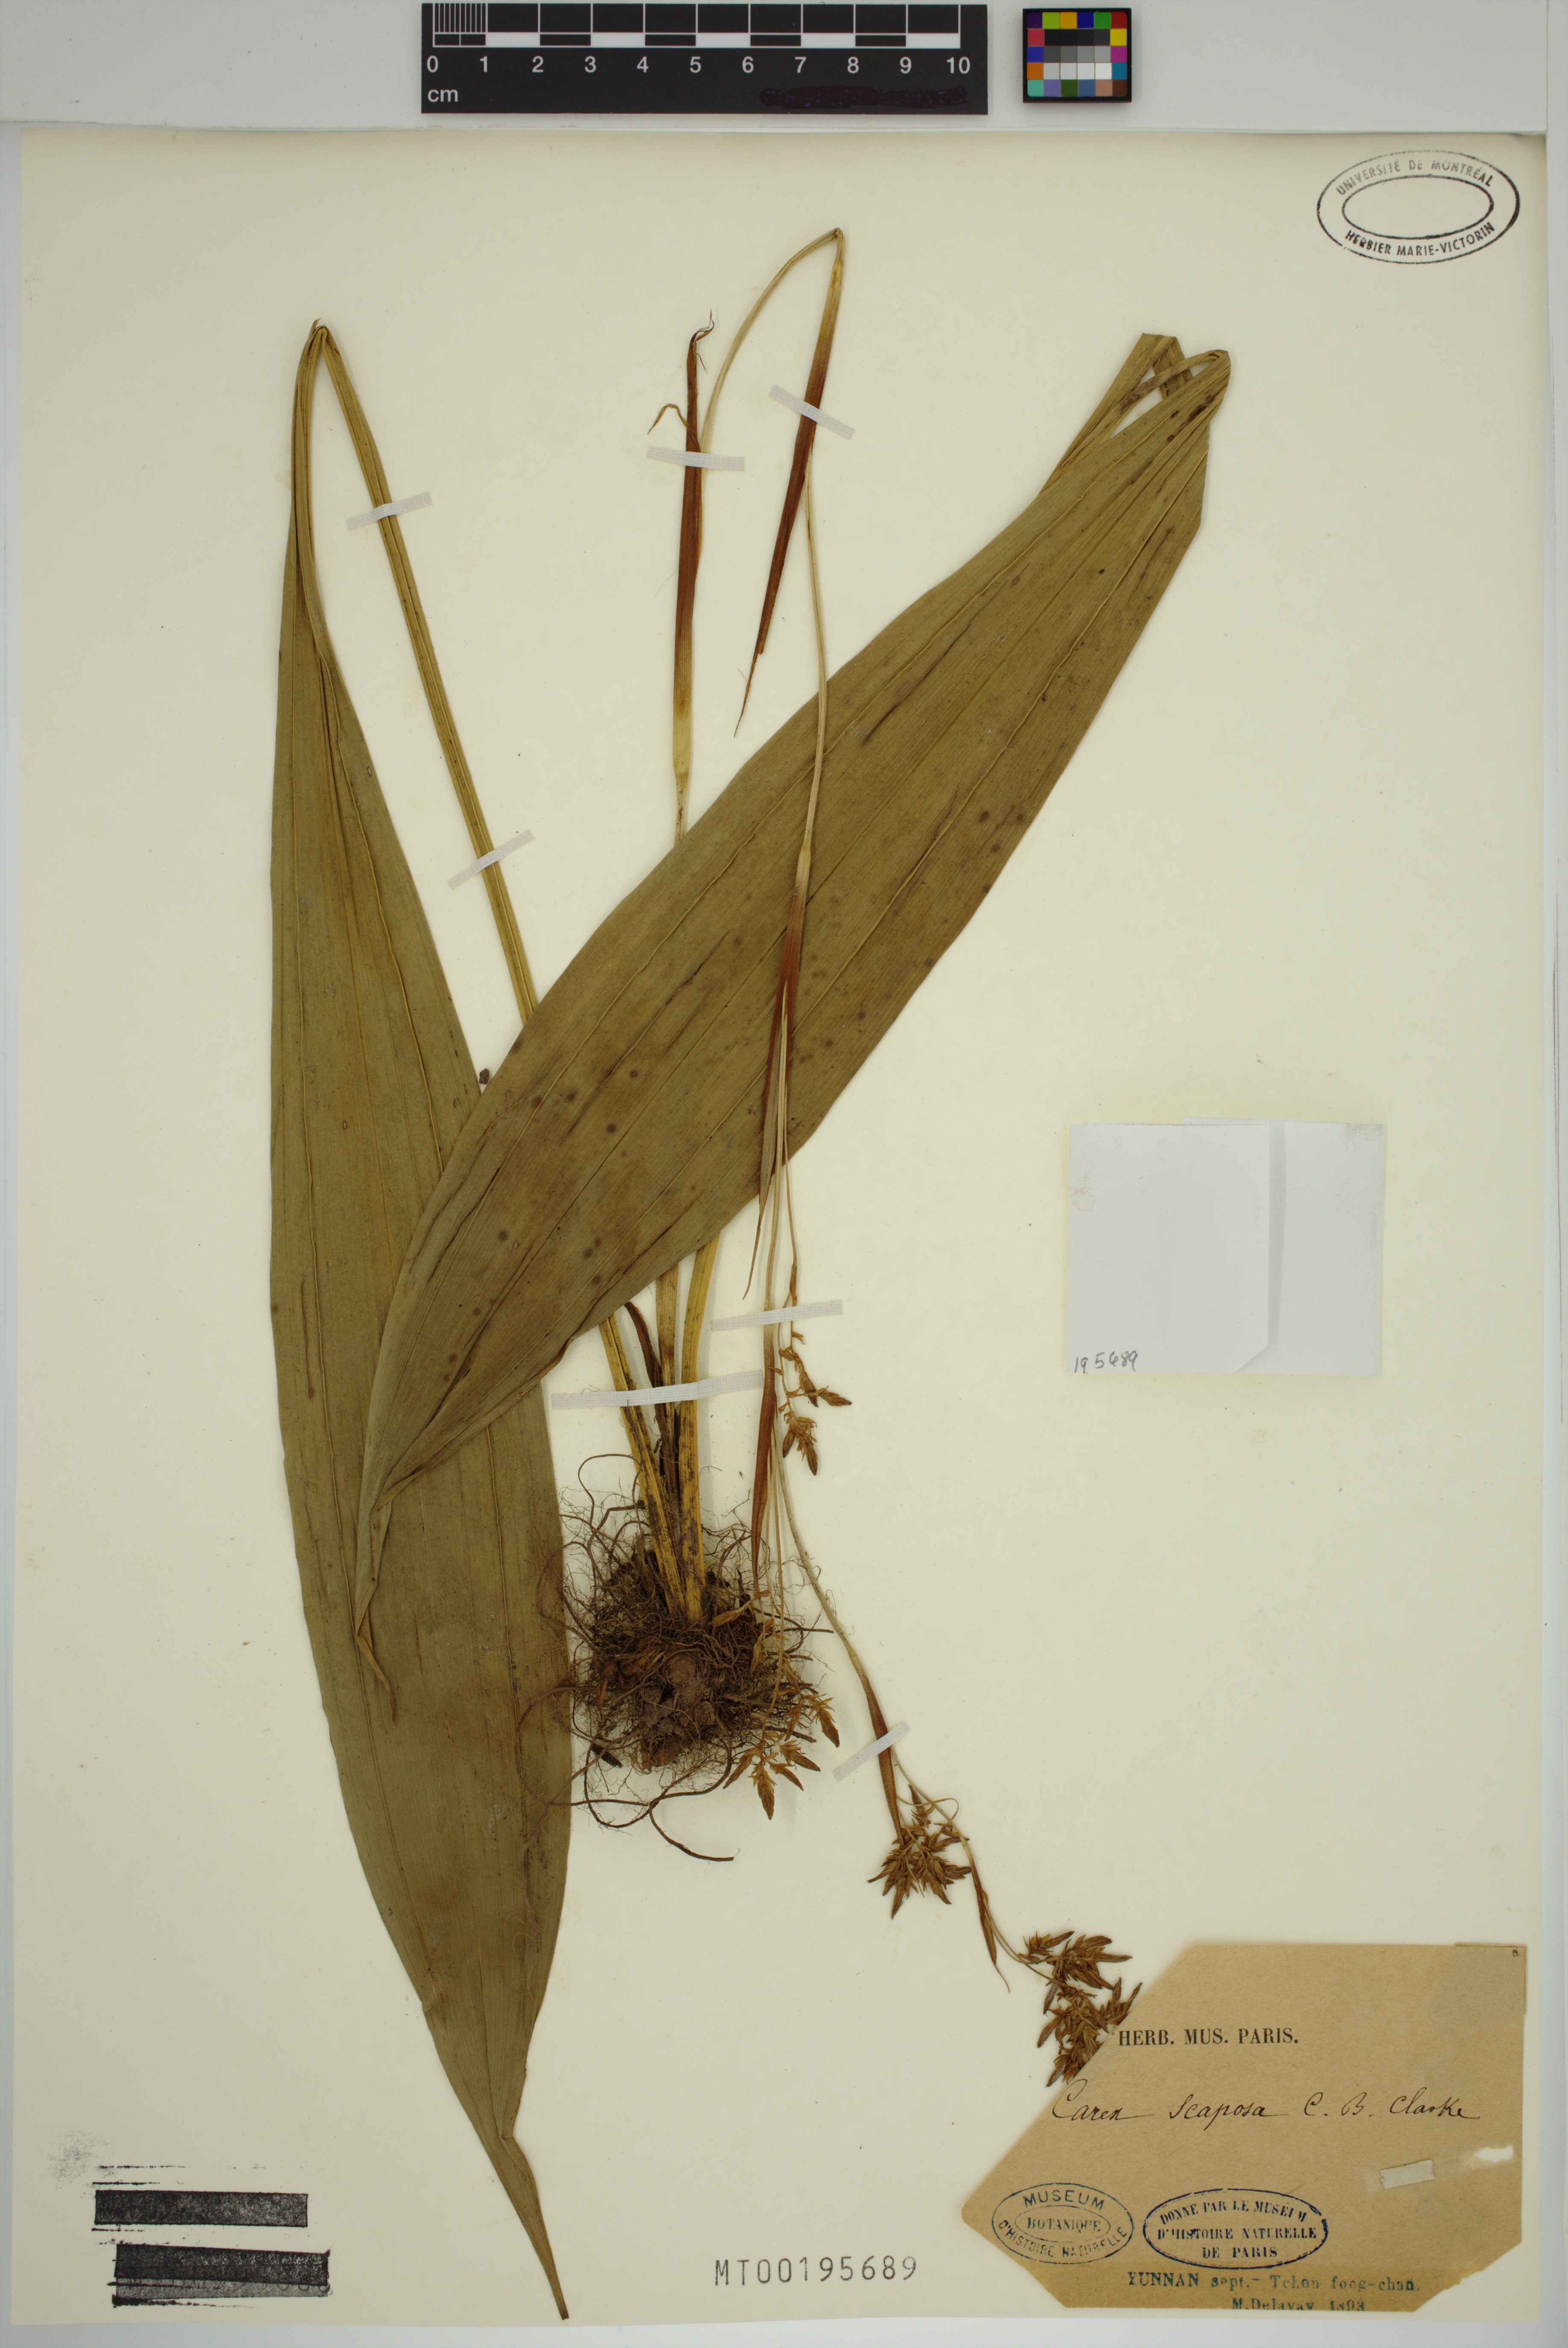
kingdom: Plantae
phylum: Tracheophyta
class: Liliopsida
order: Poales
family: Cyperaceae
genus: Carex
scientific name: Carex scaposa
